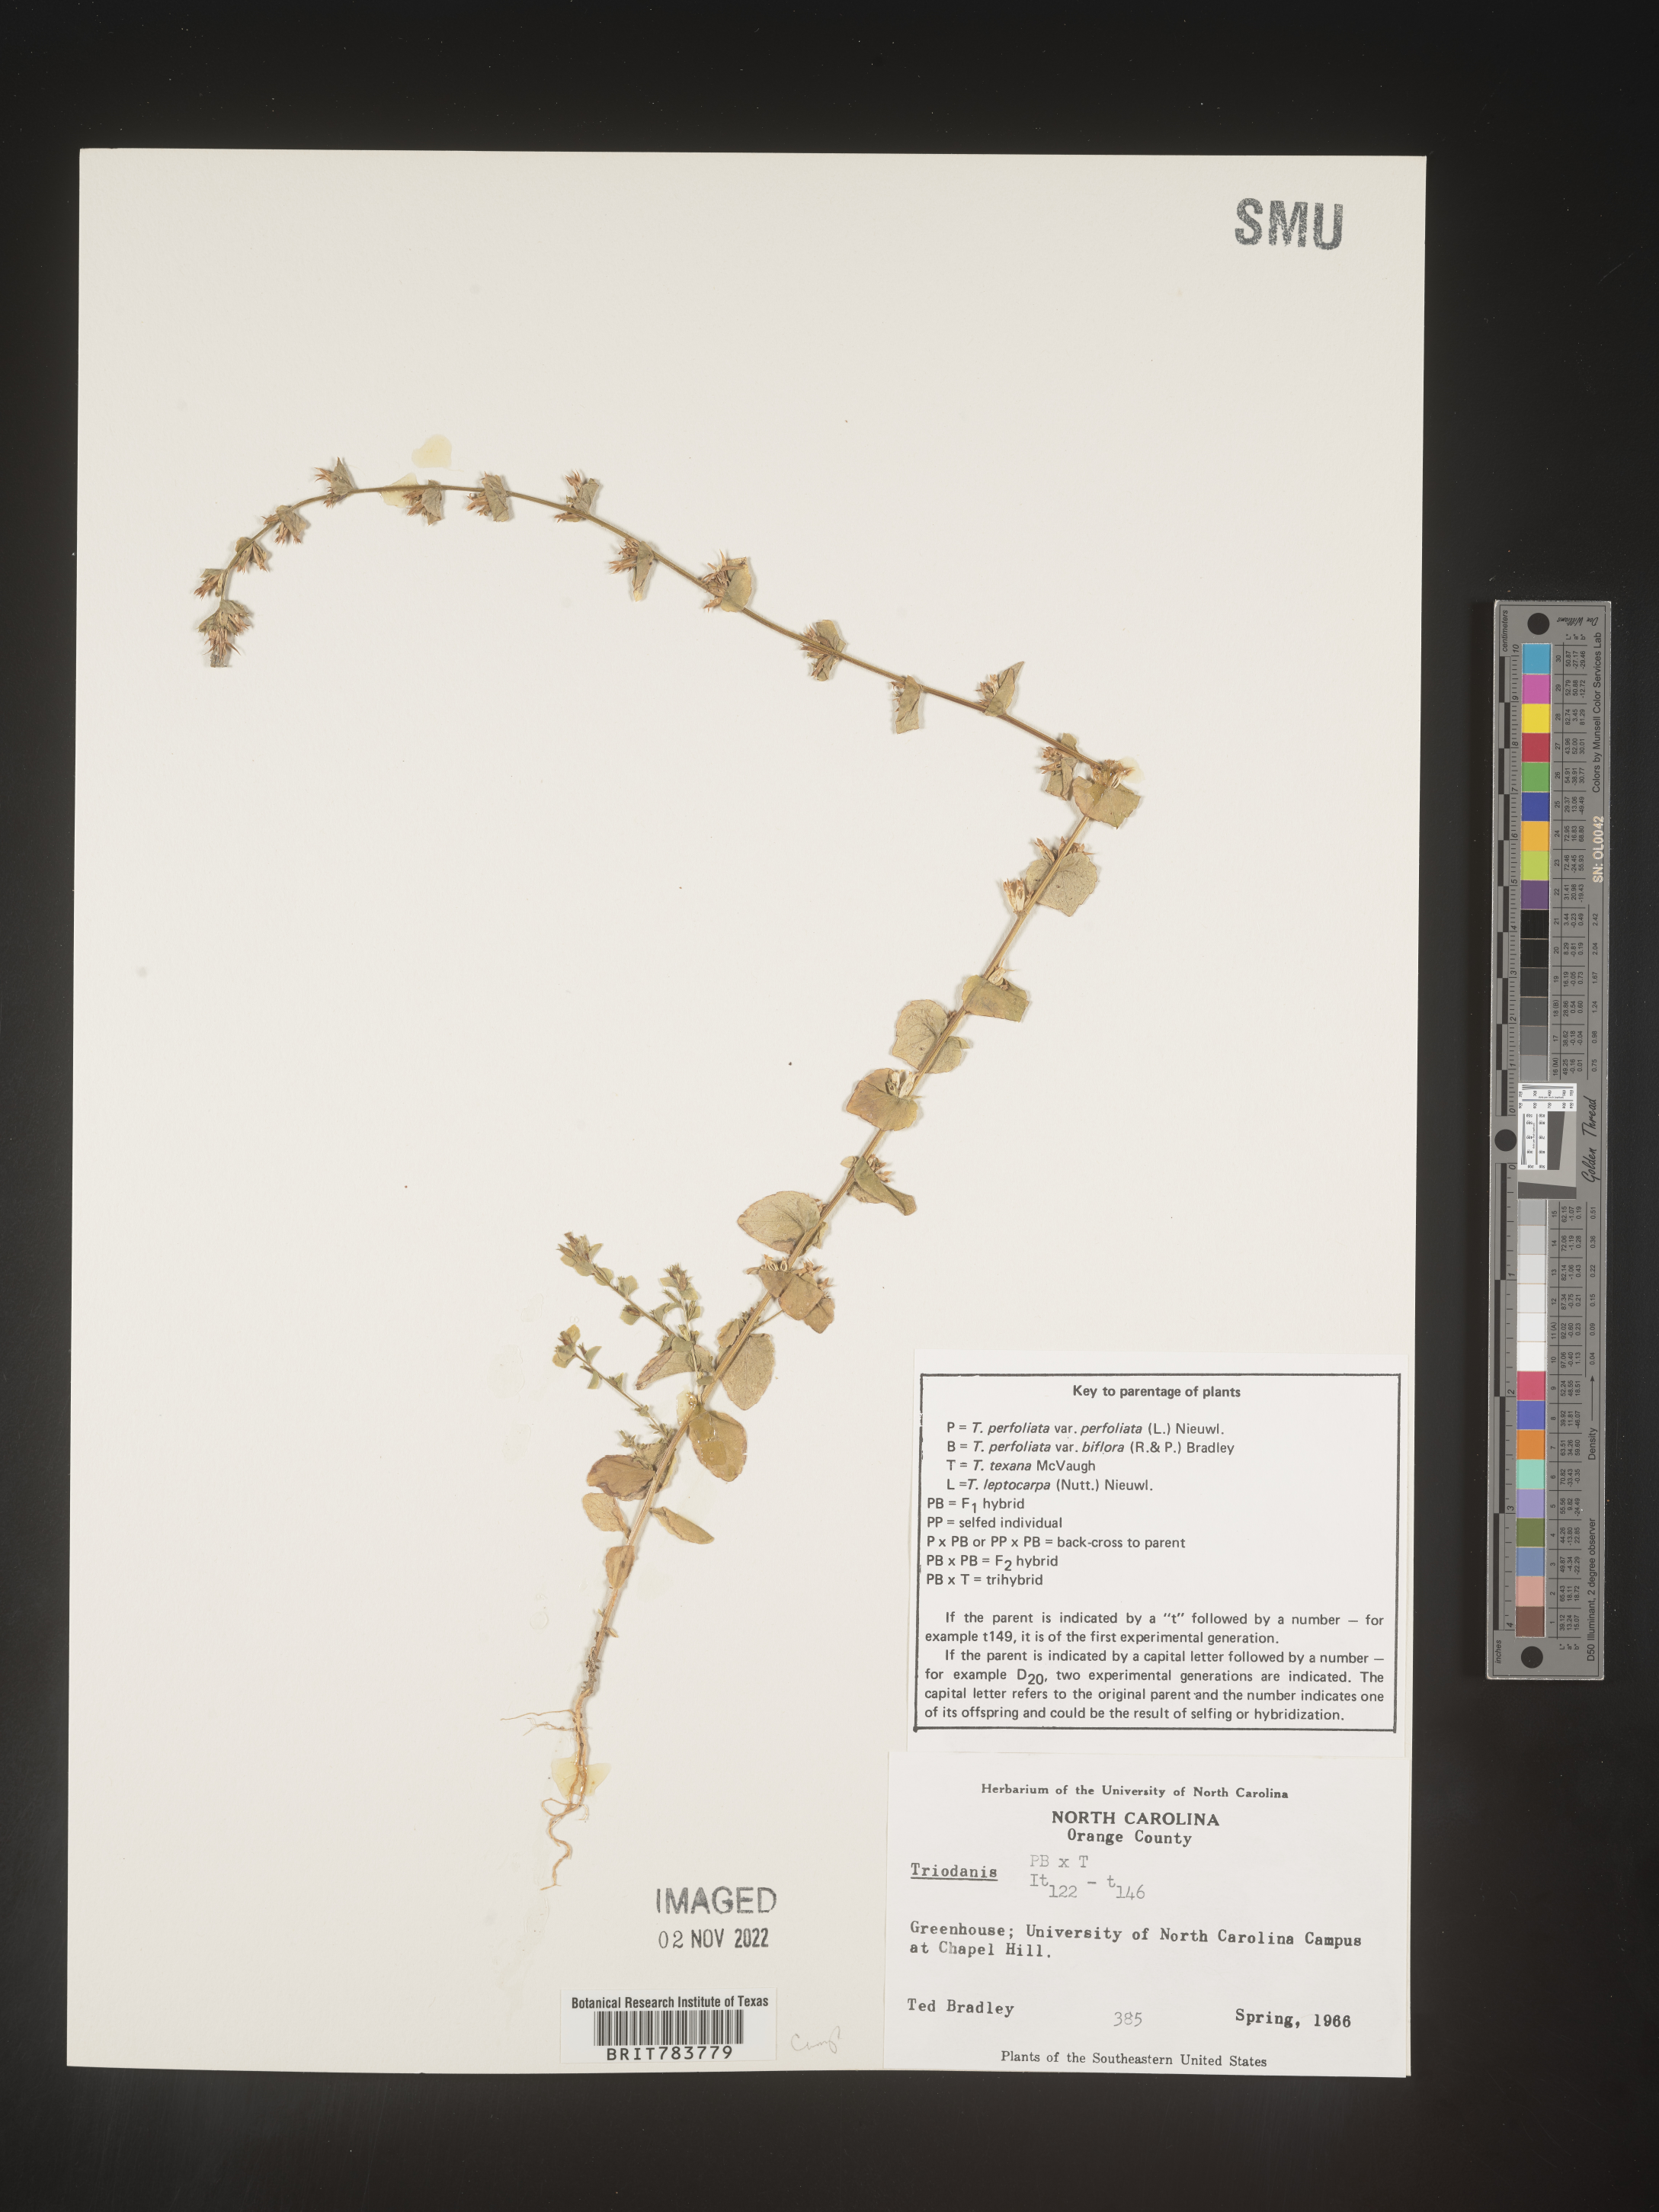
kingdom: Plantae
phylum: Tracheophyta
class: Magnoliopsida
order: Asterales
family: Campanulaceae
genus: Triodanis
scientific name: Triodanis
